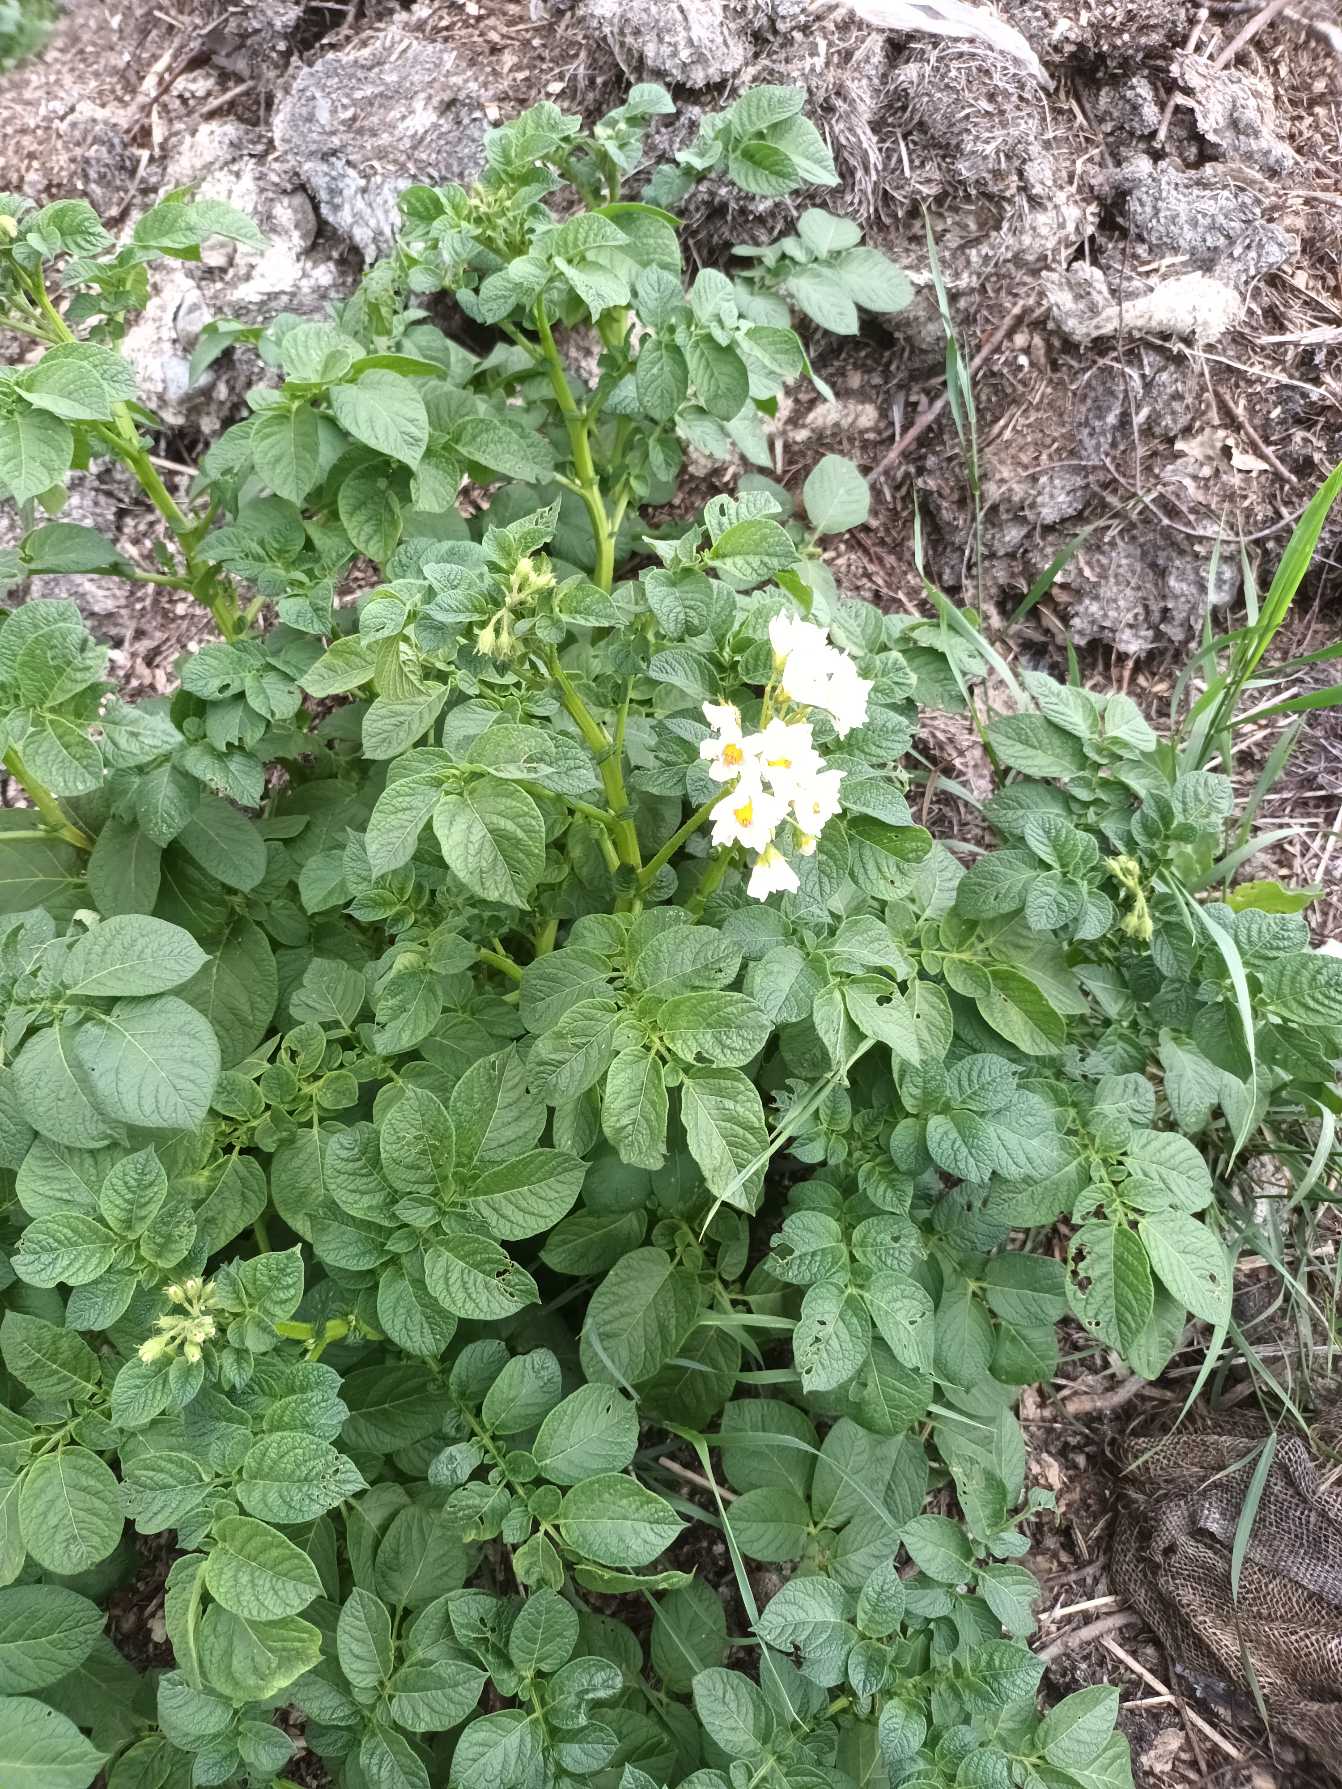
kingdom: Plantae
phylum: Tracheophyta
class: Magnoliopsida
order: Solanales
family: Solanaceae
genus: Solanum
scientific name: Solanum tuberosum
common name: Kartoffel
